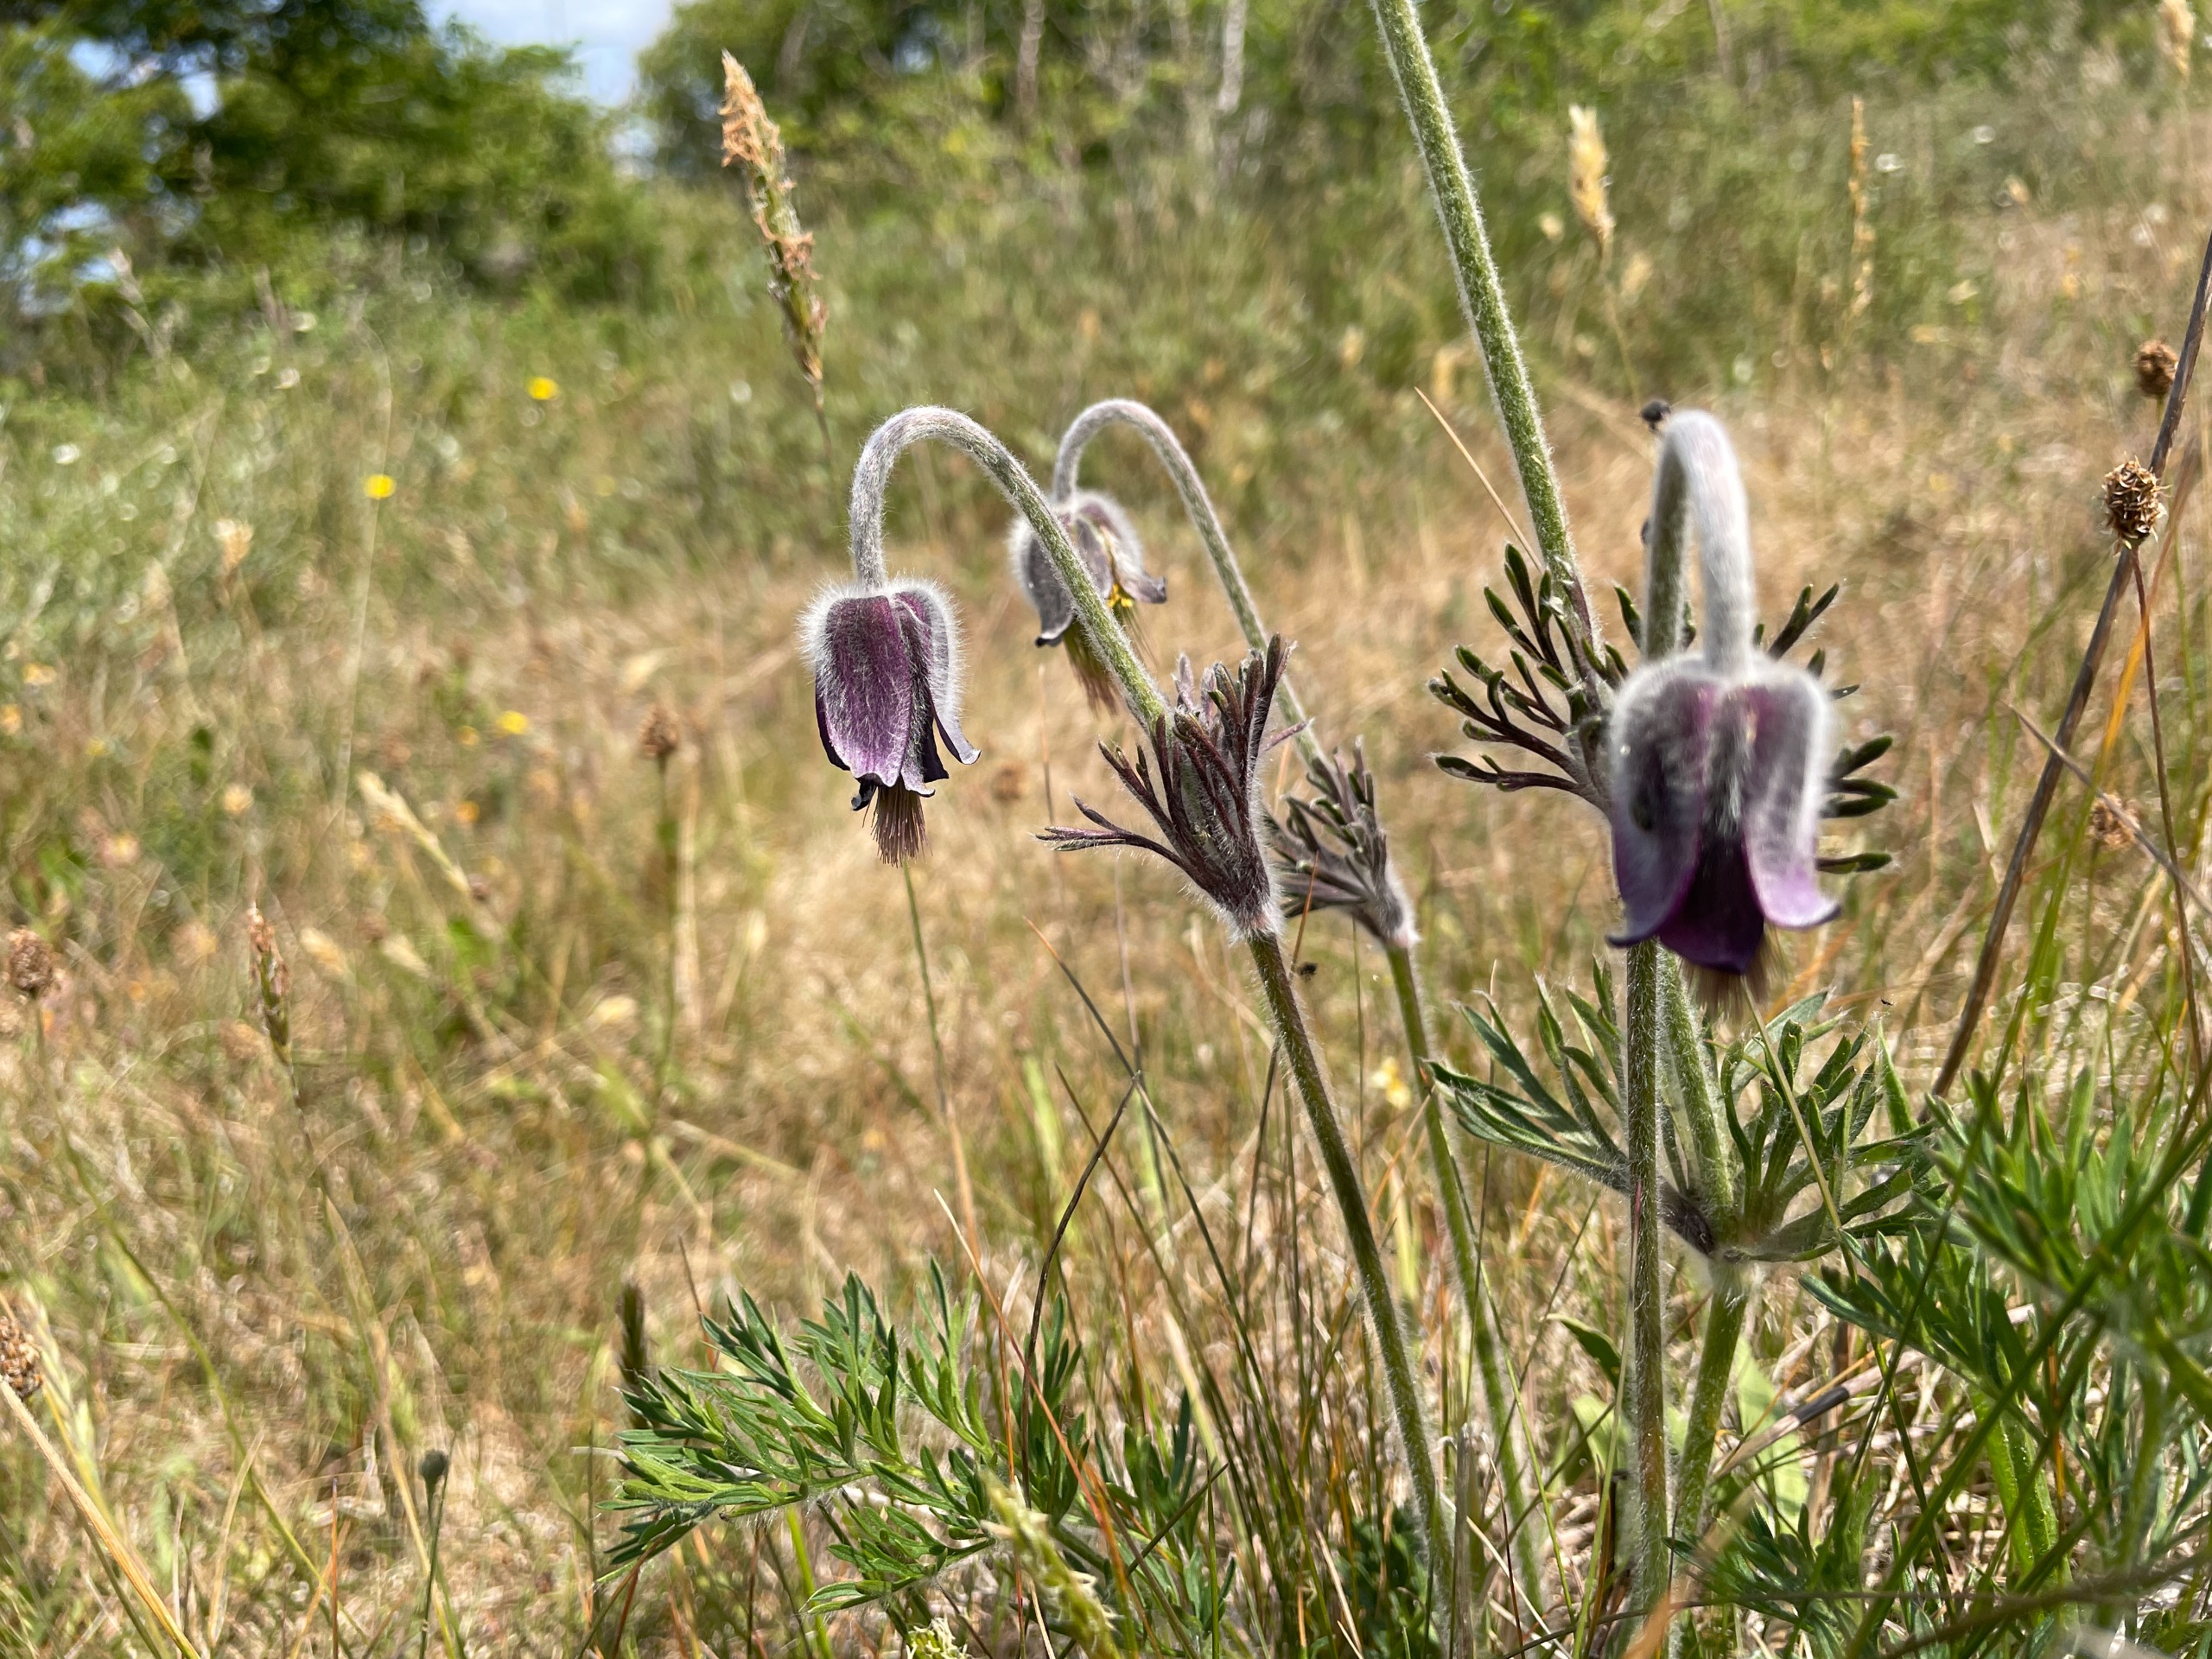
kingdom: Plantae
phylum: Tracheophyta
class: Magnoliopsida
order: Ranunculales
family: Ranunculaceae
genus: Pulsatilla
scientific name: Pulsatilla pratensis
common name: Nikkende kobjælde
